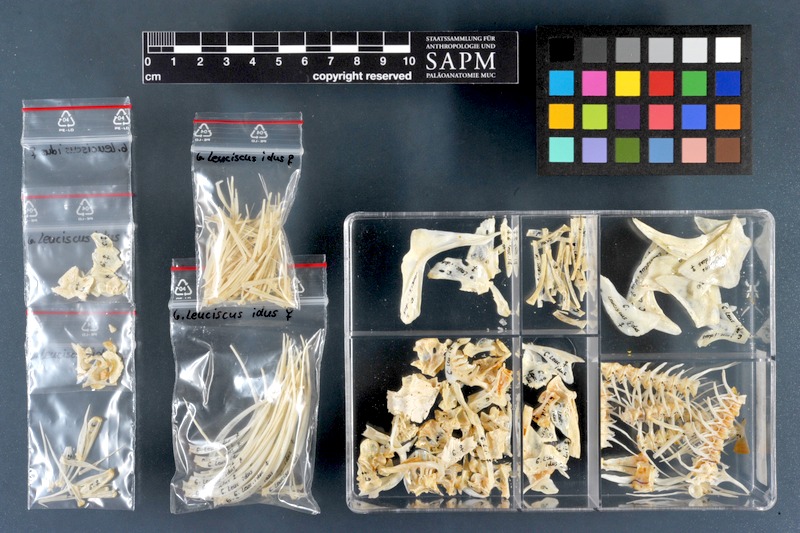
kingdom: Animalia
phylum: Chordata
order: Cypriniformes
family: Cyprinidae
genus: Leuciscus
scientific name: Leuciscus idus
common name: Ide
